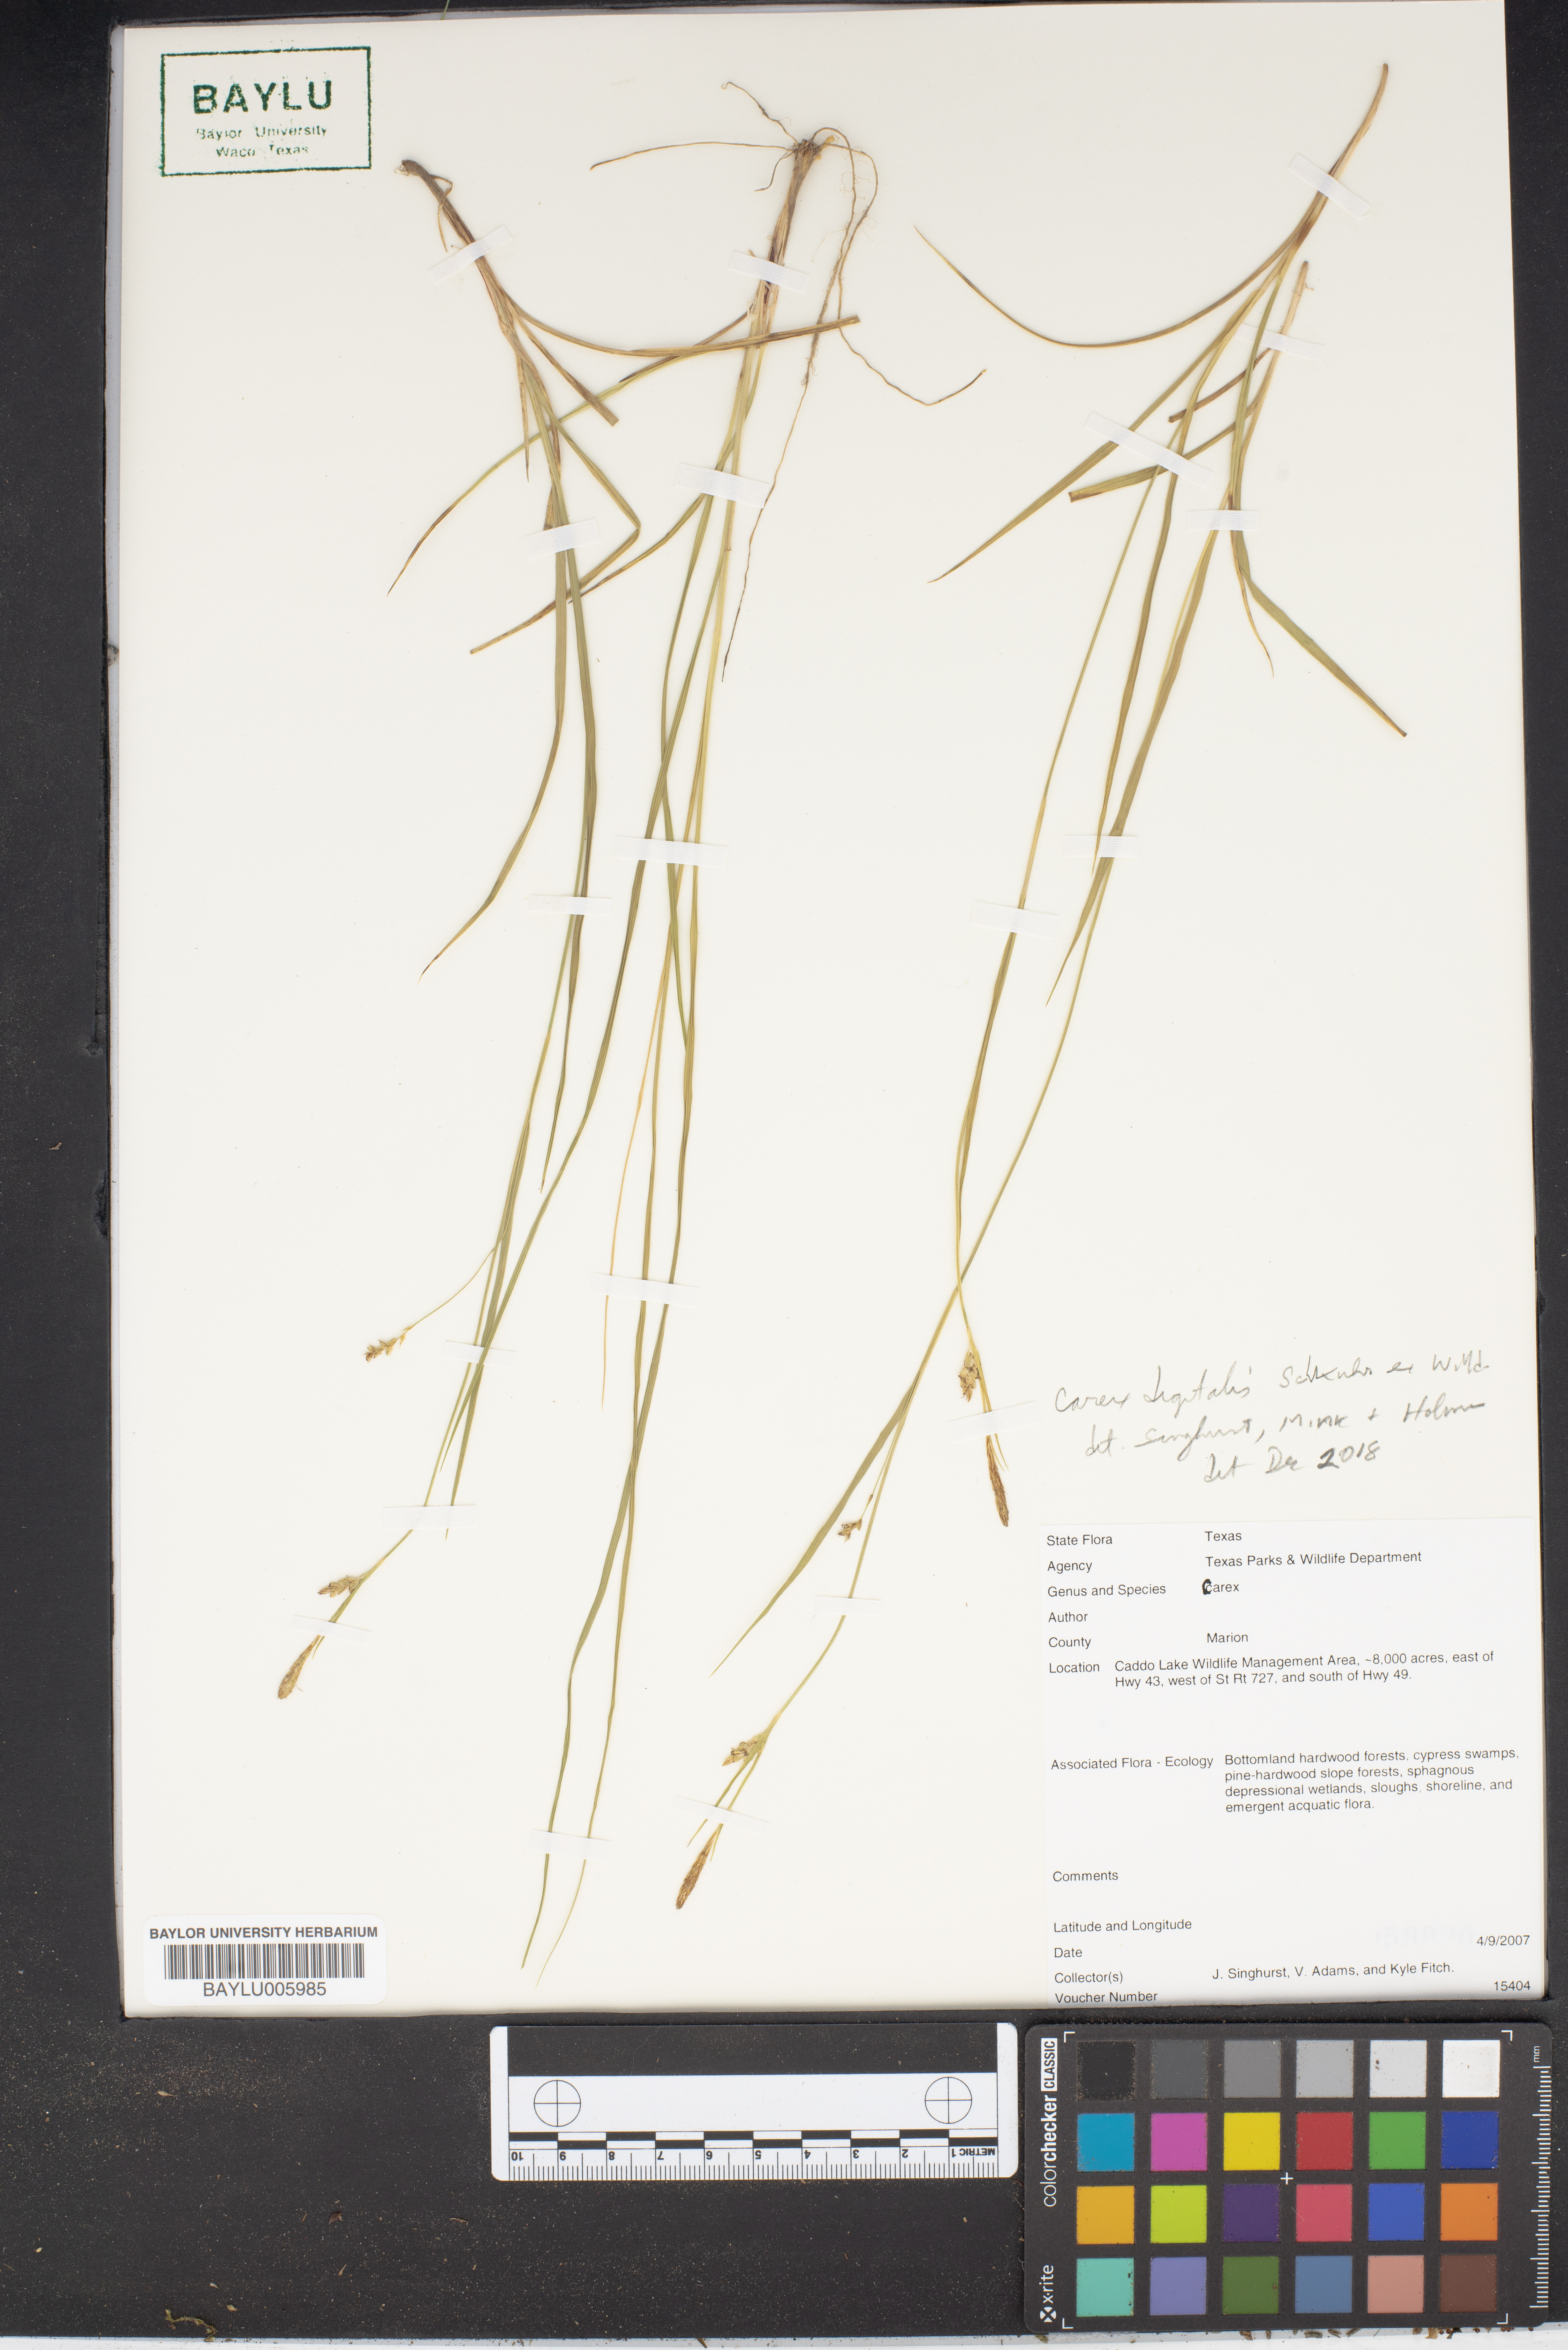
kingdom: Plantae
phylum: Tracheophyta
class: Liliopsida
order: Poales
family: Cyperaceae
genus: Carex
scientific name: Carex digitalis
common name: Slender wood sedge
